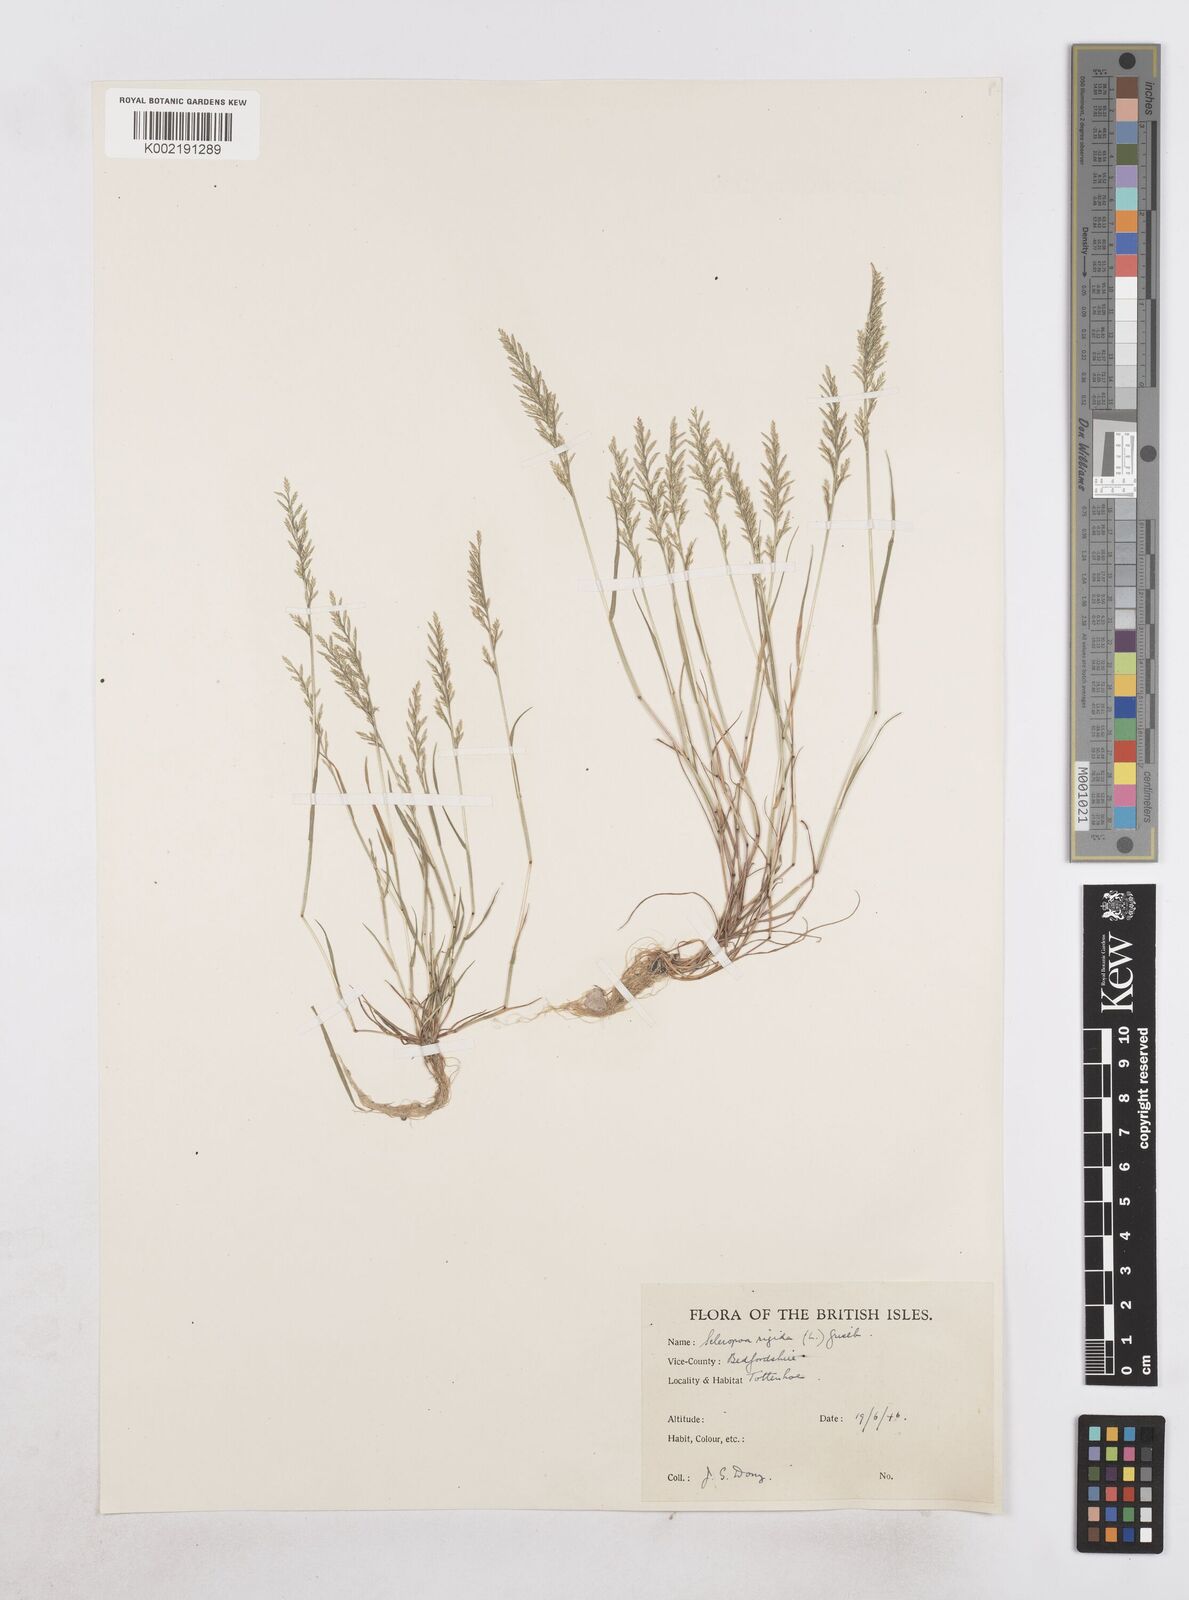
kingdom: Plantae
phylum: Tracheophyta
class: Liliopsida
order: Poales
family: Poaceae
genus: Catapodium
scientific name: Catapodium rigidum
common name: Fern-grass
